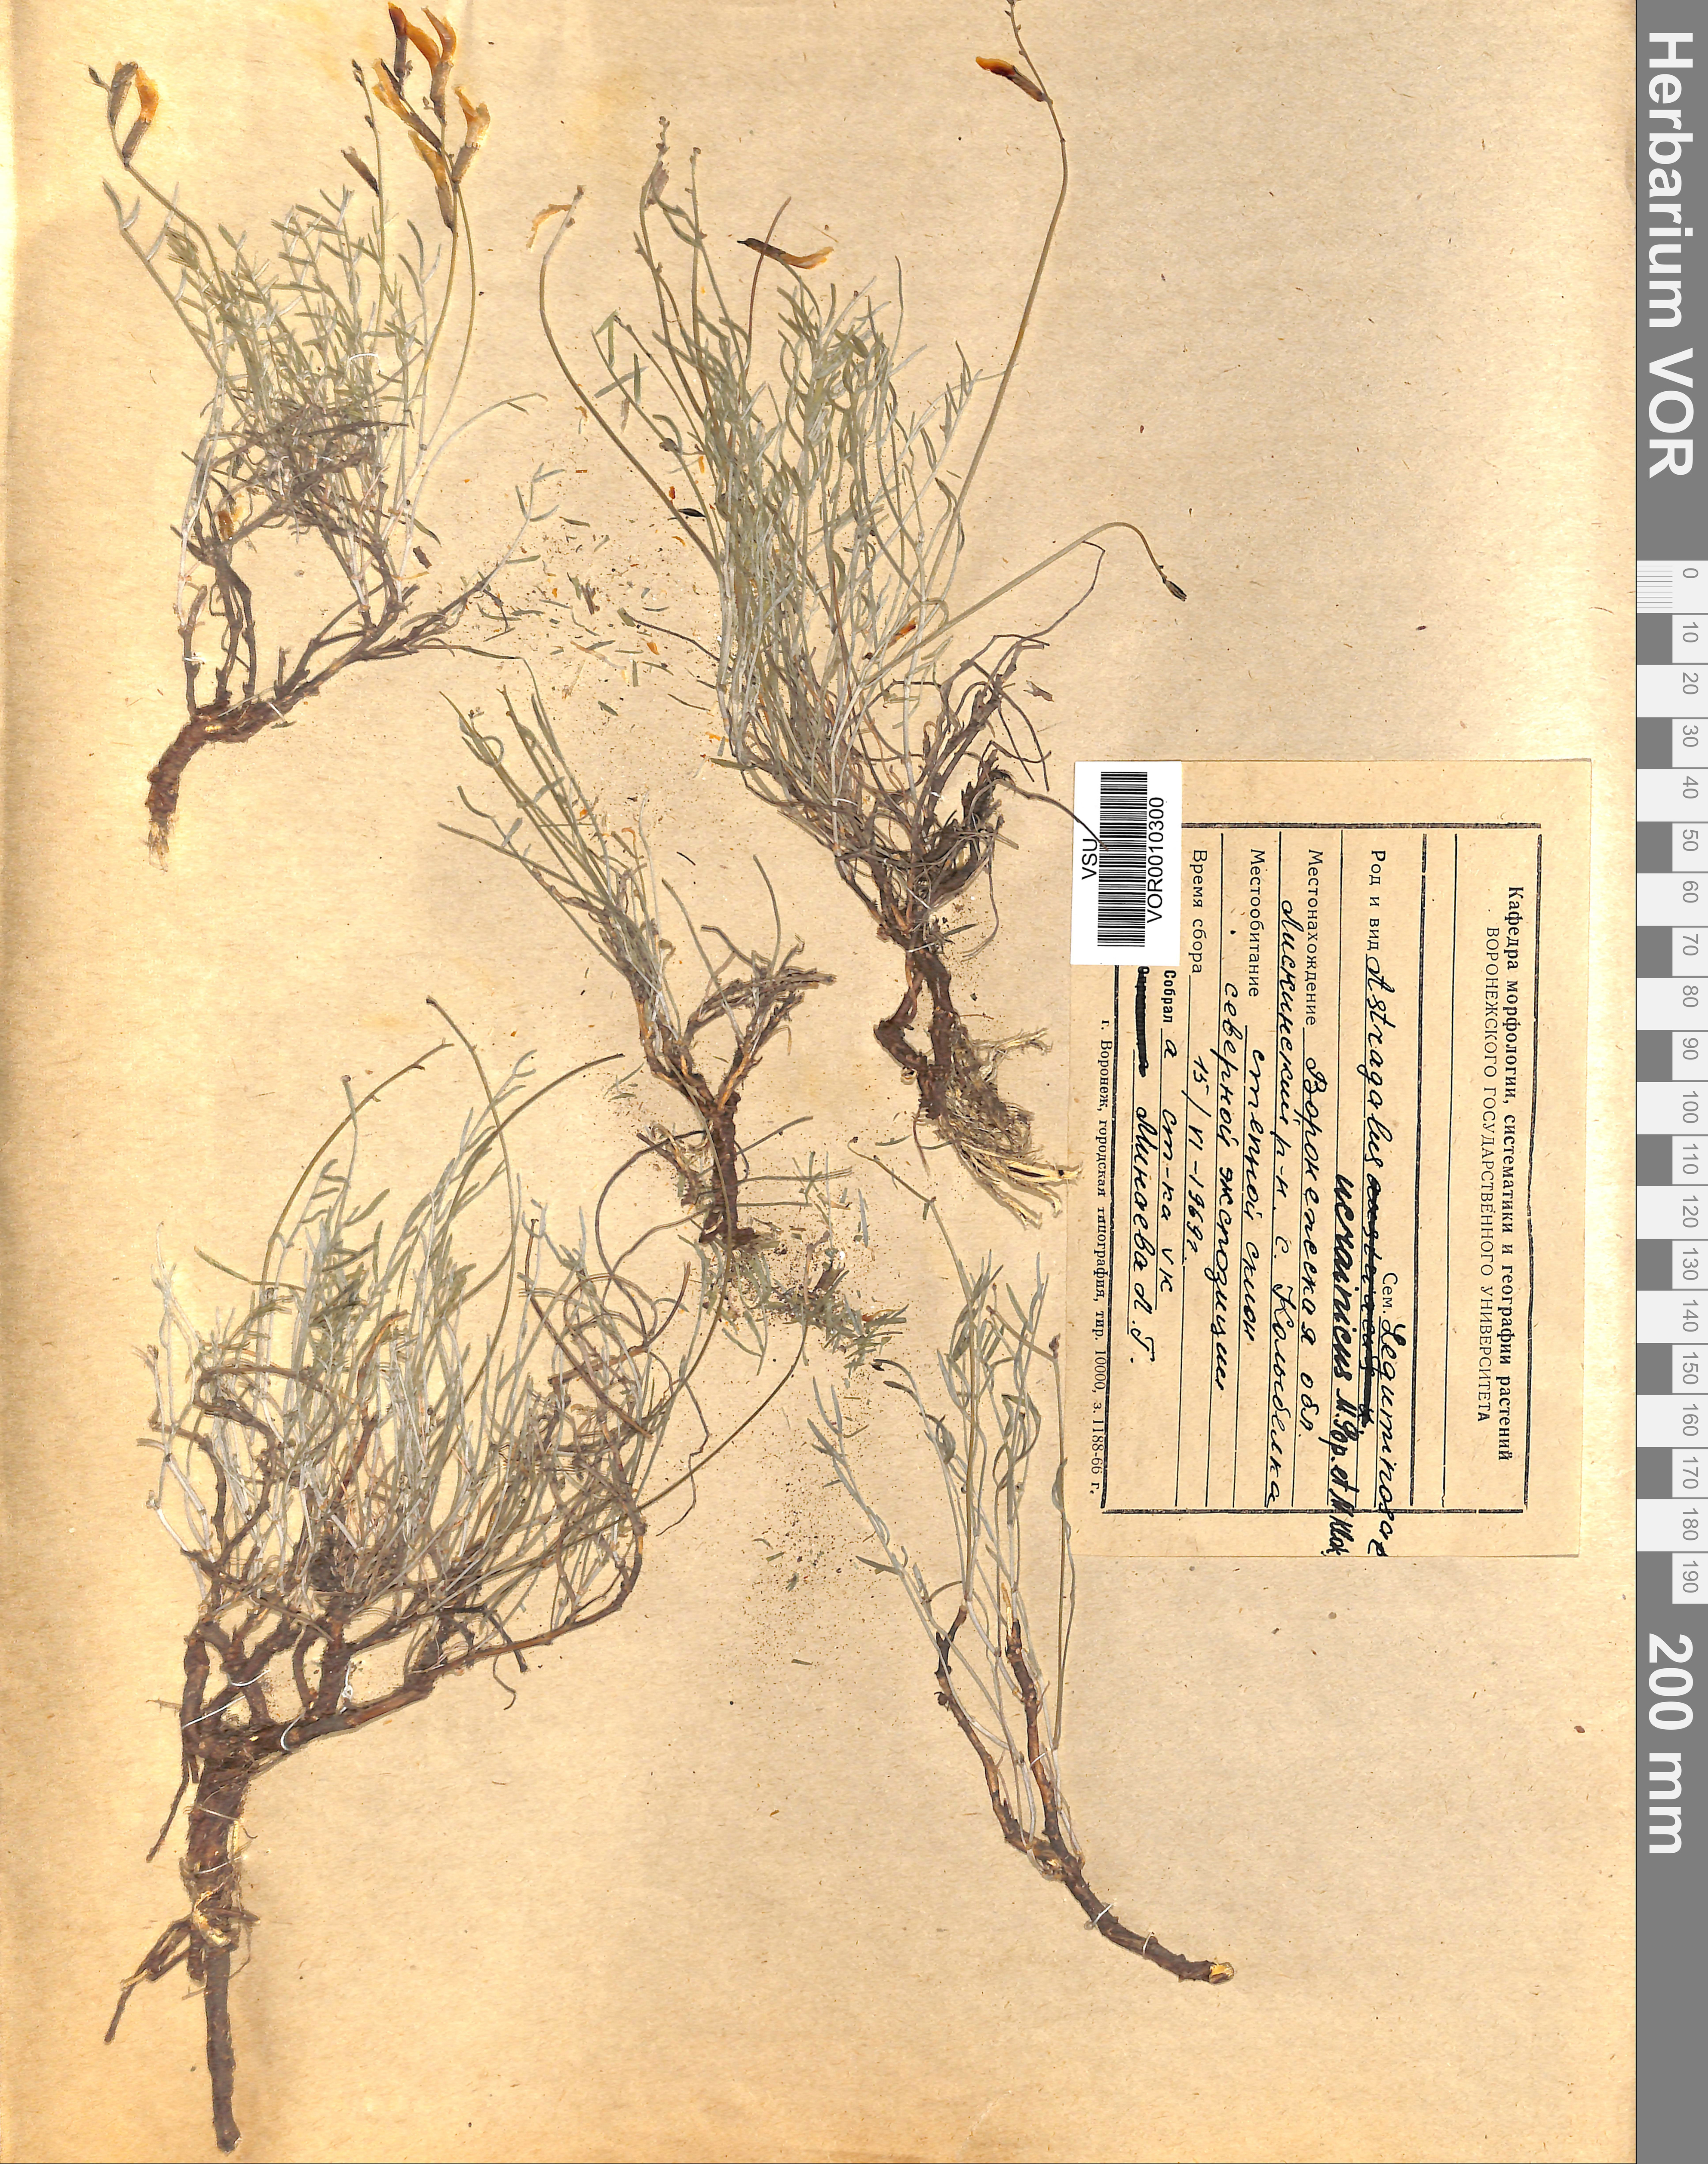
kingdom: Plantae
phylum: Tracheophyta
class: Magnoliopsida
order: Fabales
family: Fabaceae
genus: Astragalus
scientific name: Astragalus ucrainicus
